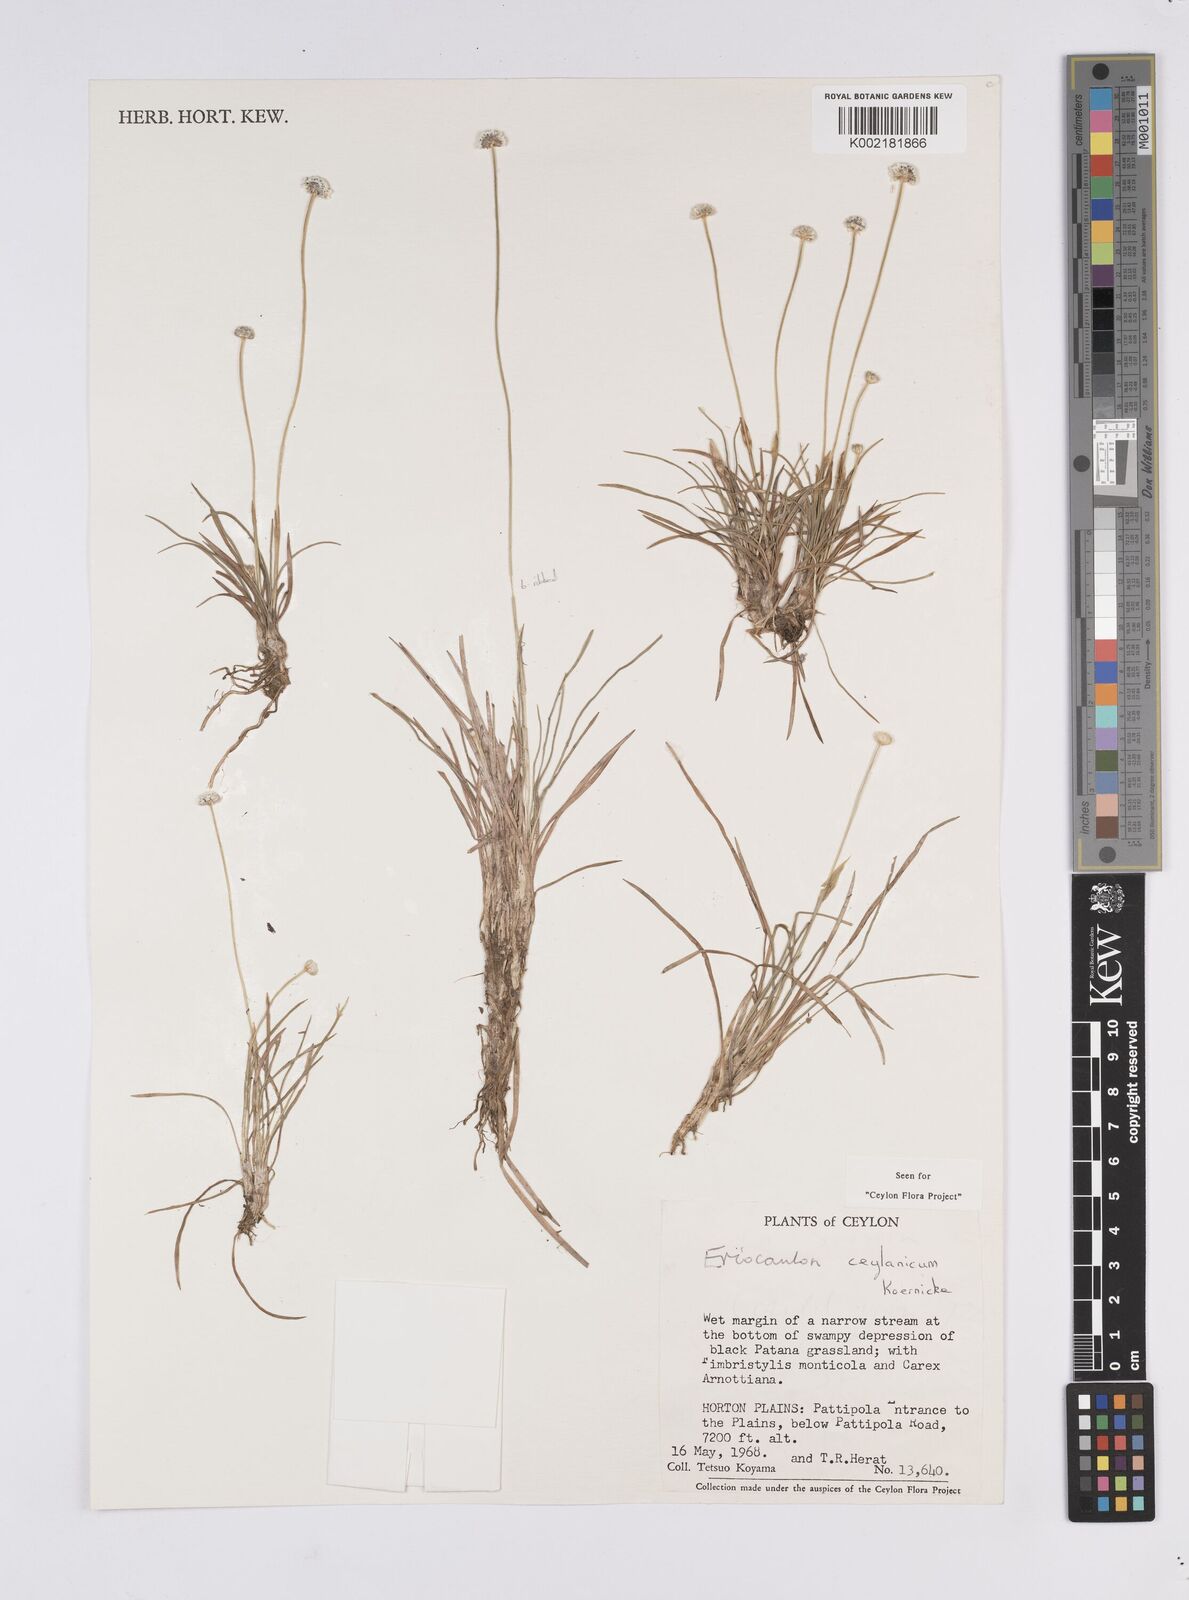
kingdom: Plantae
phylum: Tracheophyta
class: Liliopsida
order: Poales
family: Eriocaulaceae
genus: Eriocaulon
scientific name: Eriocaulon ceylanicum
